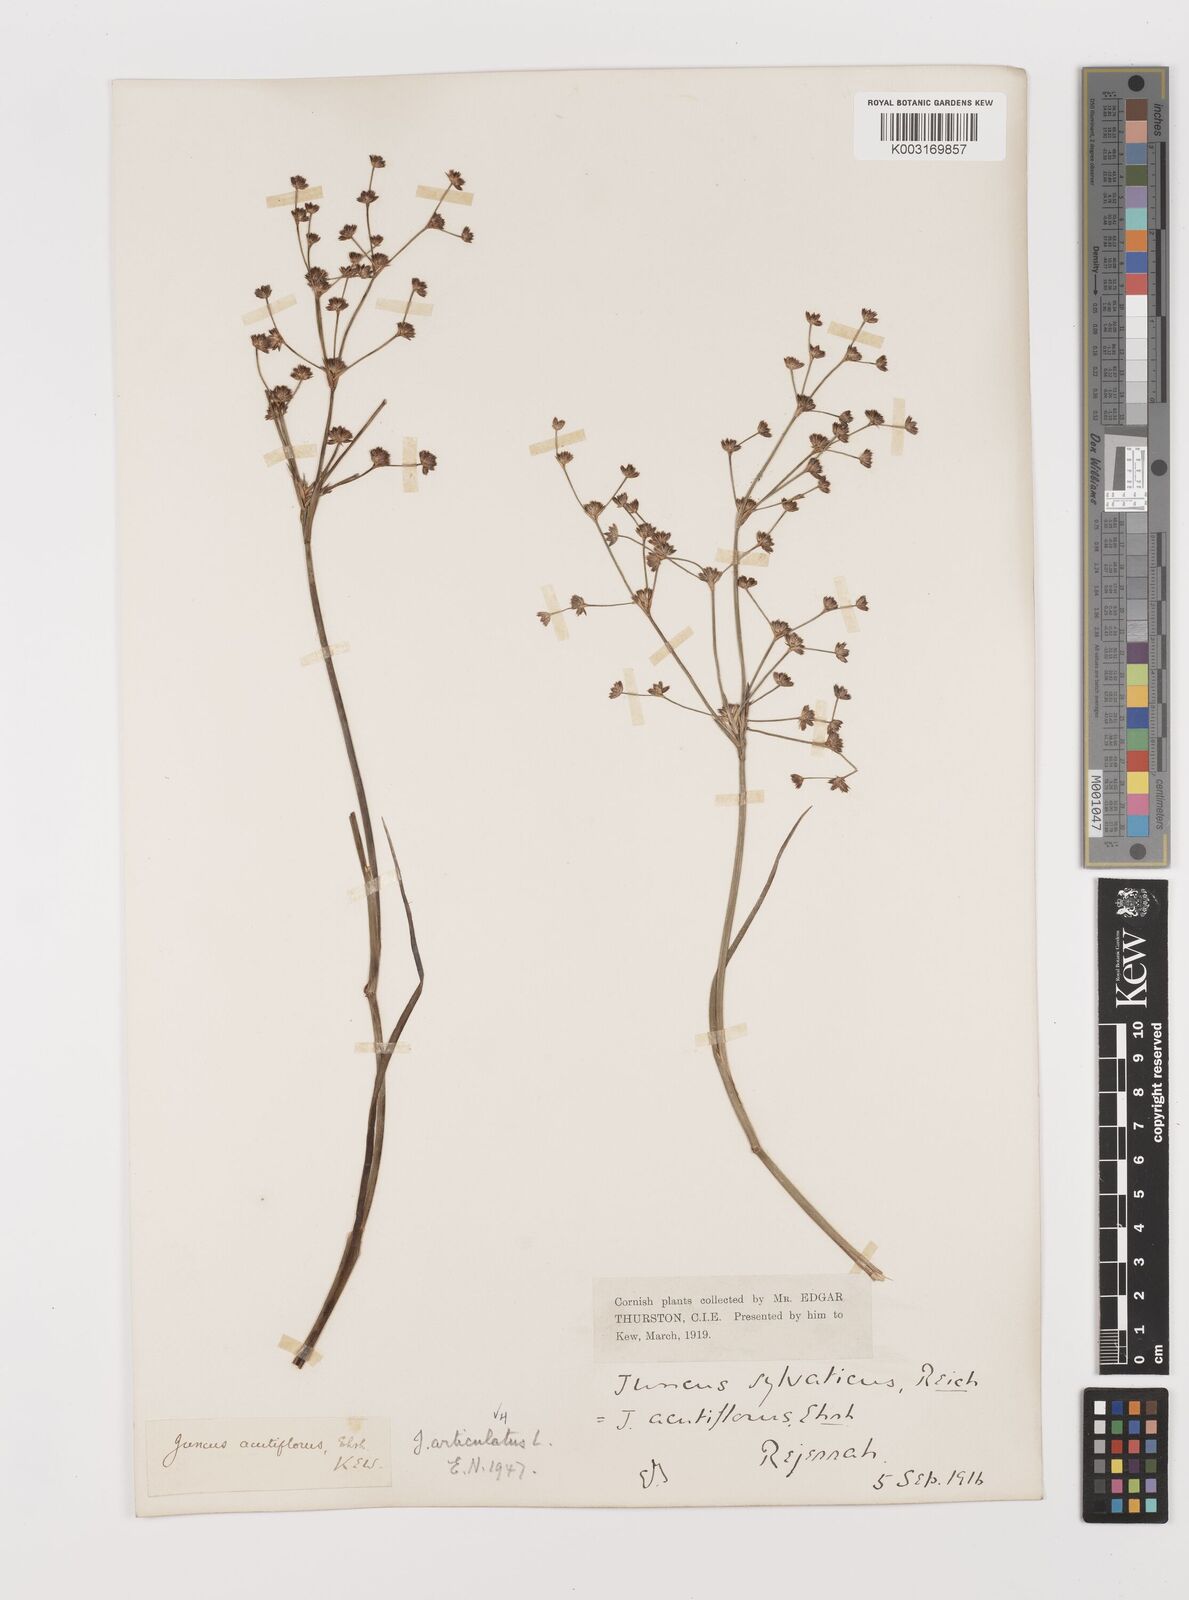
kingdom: Plantae
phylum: Tracheophyta
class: Liliopsida
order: Poales
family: Juncaceae
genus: Juncus
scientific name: Juncus articulatus
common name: Jointed rush
